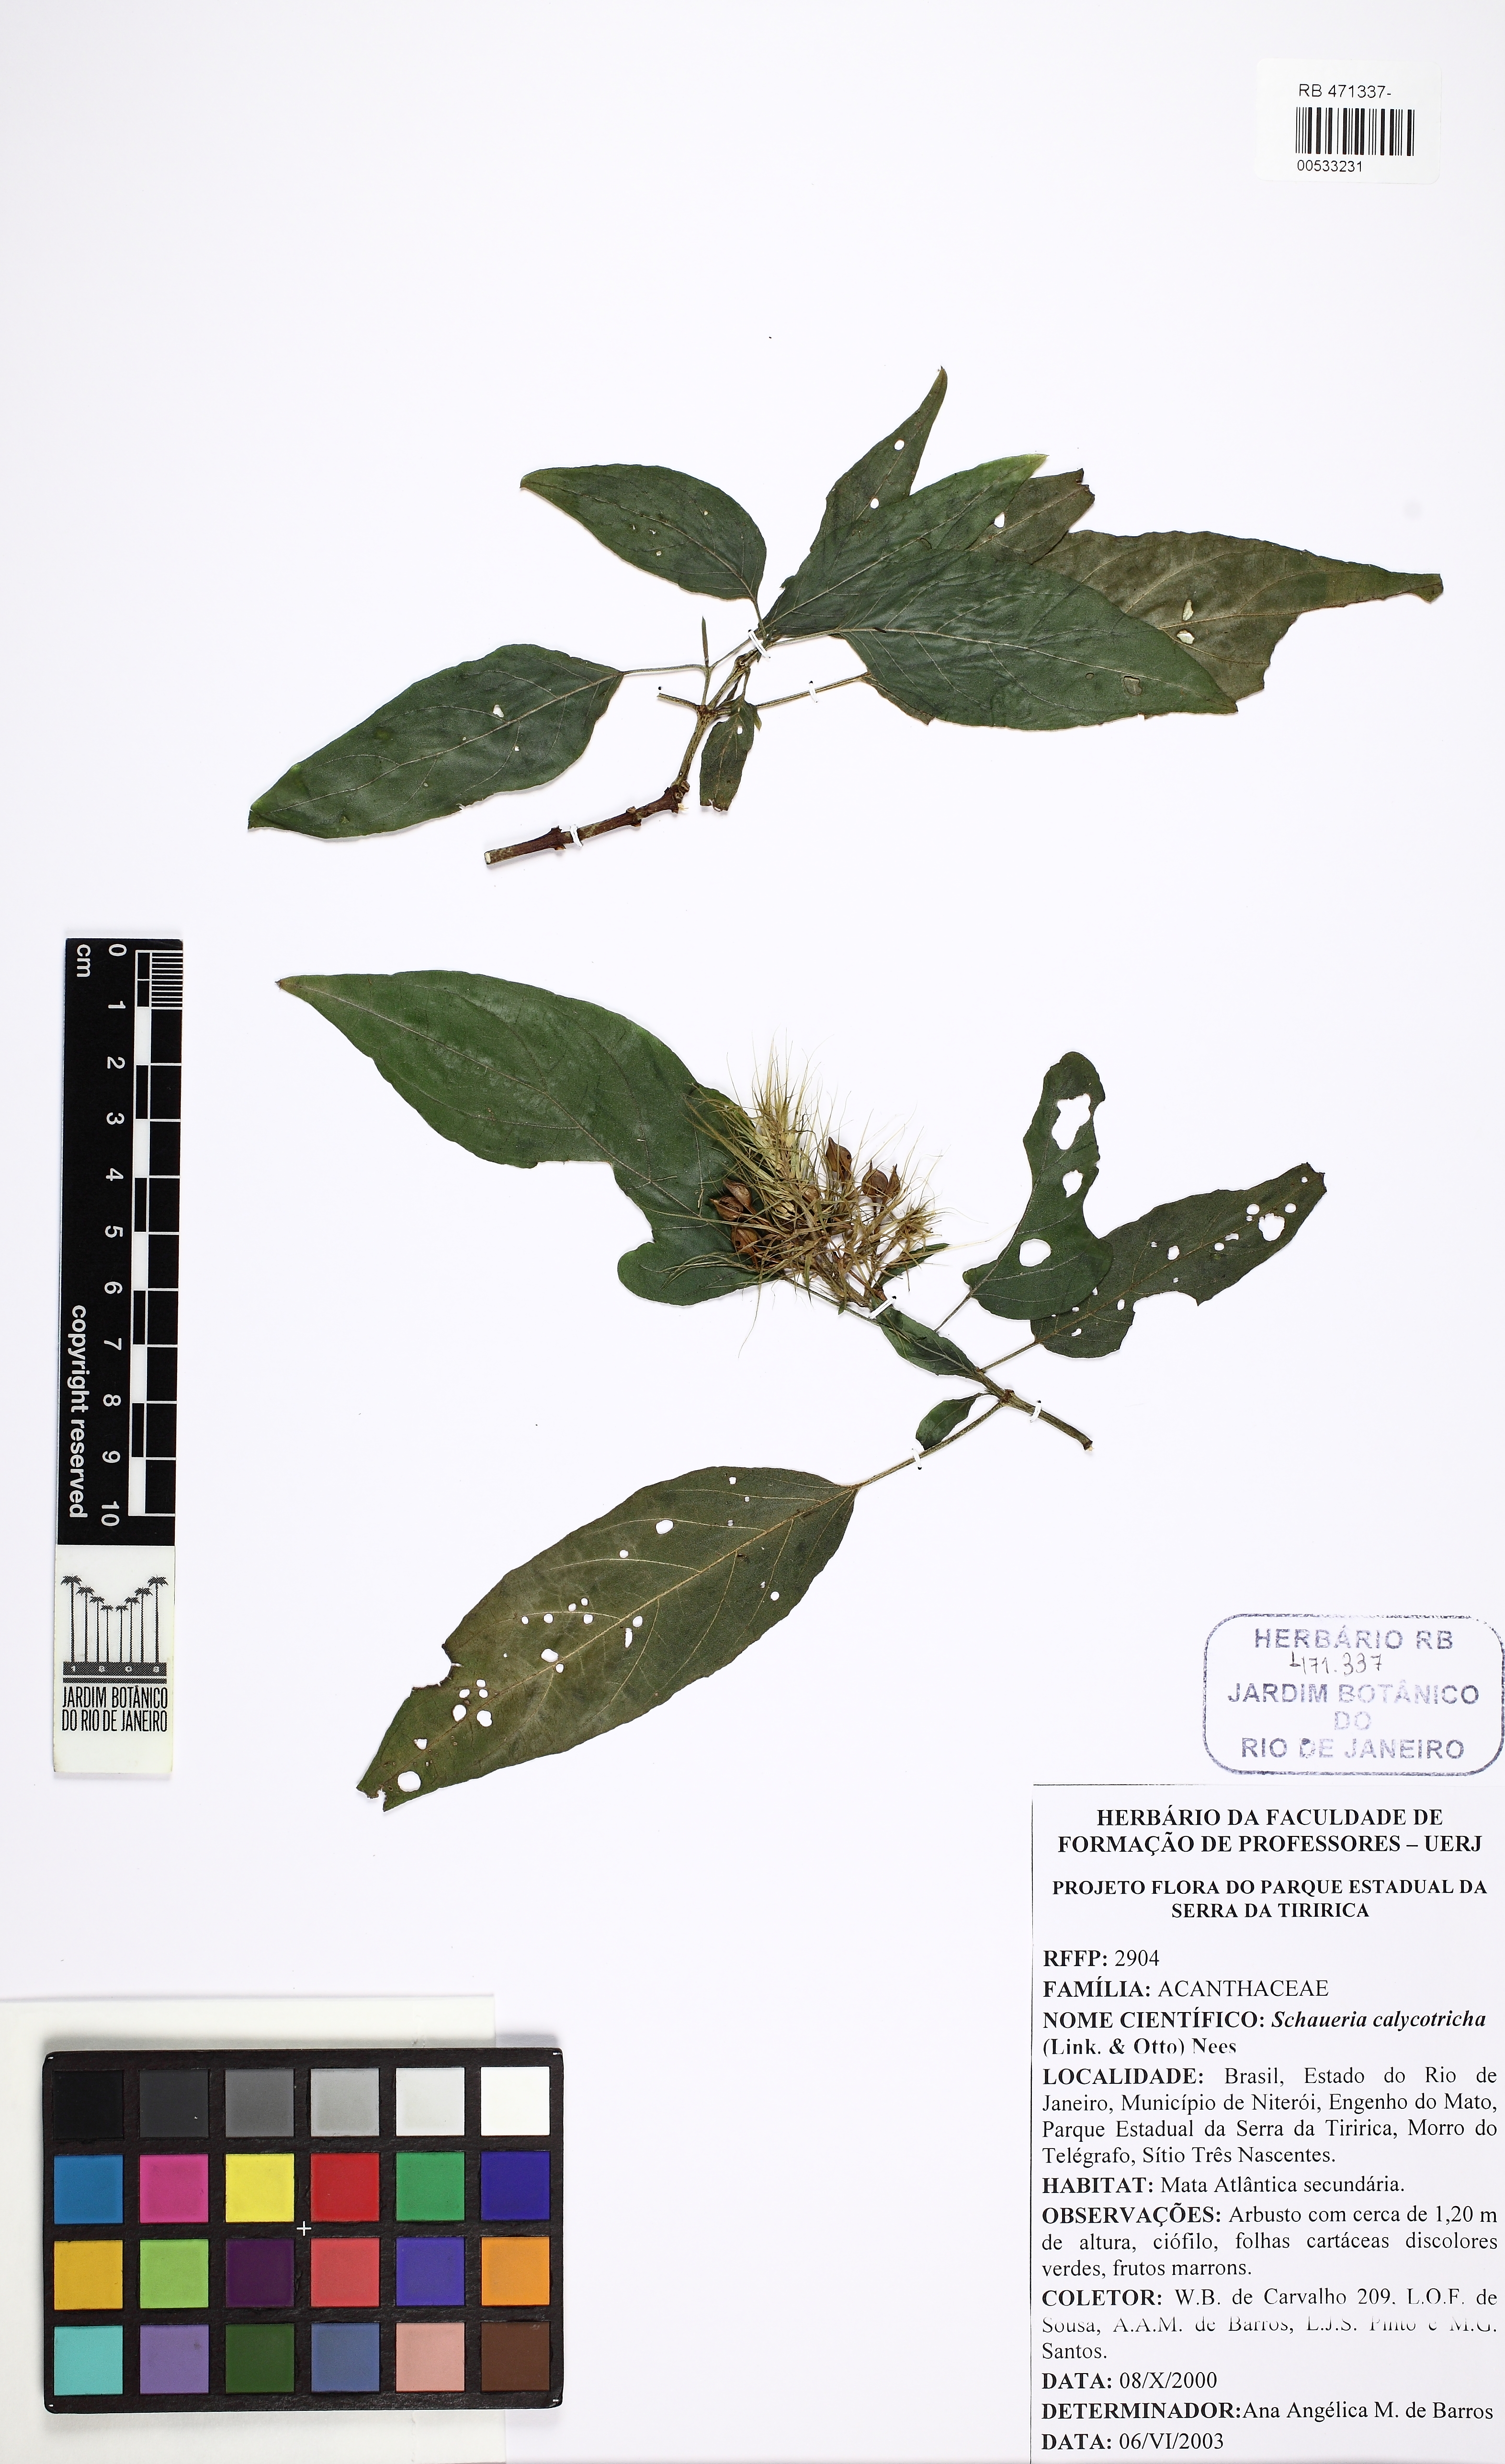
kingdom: Plantae
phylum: Tracheophyta
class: Magnoliopsida
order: Lamiales
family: Acanthaceae
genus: Schaueria
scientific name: Schaueria calytricha
